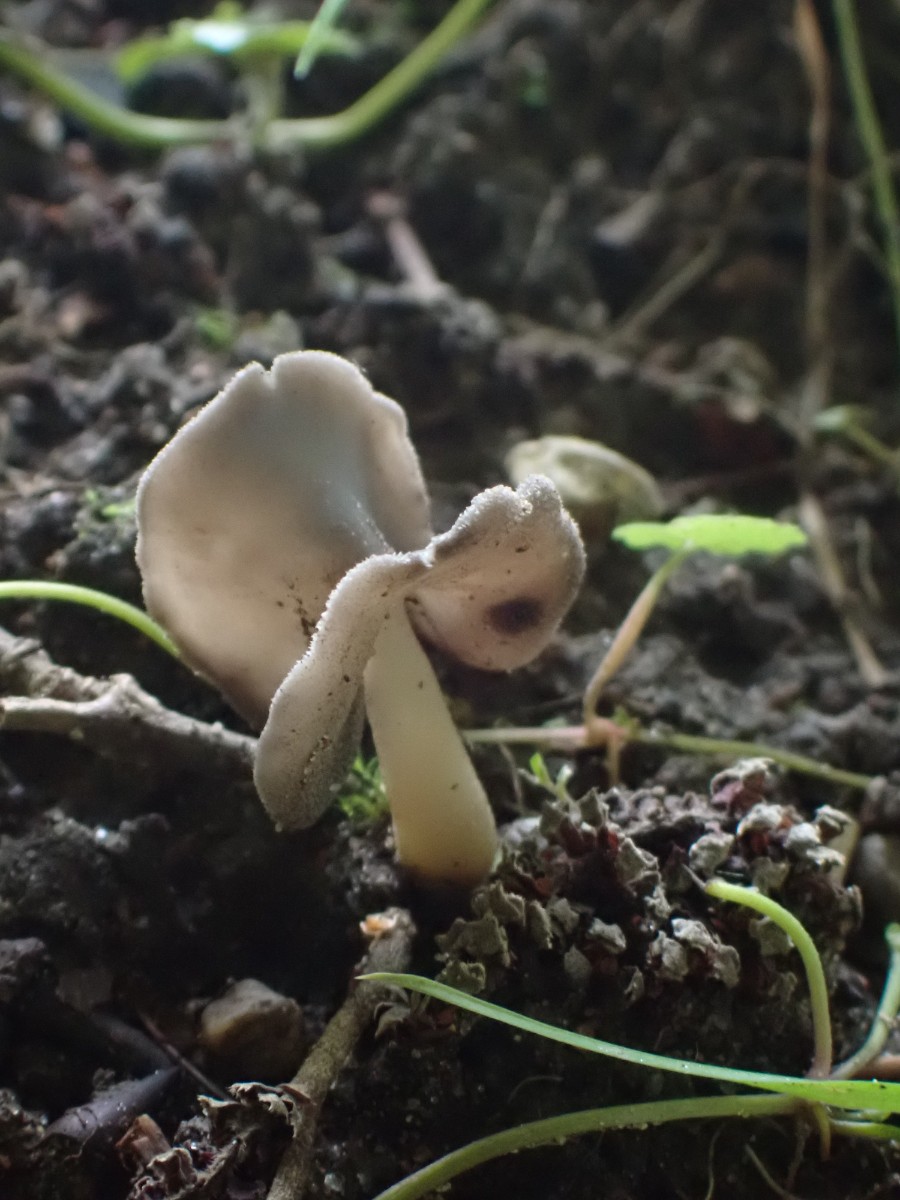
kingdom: Fungi
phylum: Ascomycota
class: Pezizomycetes
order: Pezizales
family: Helvellaceae
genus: Helvella
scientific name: Helvella
